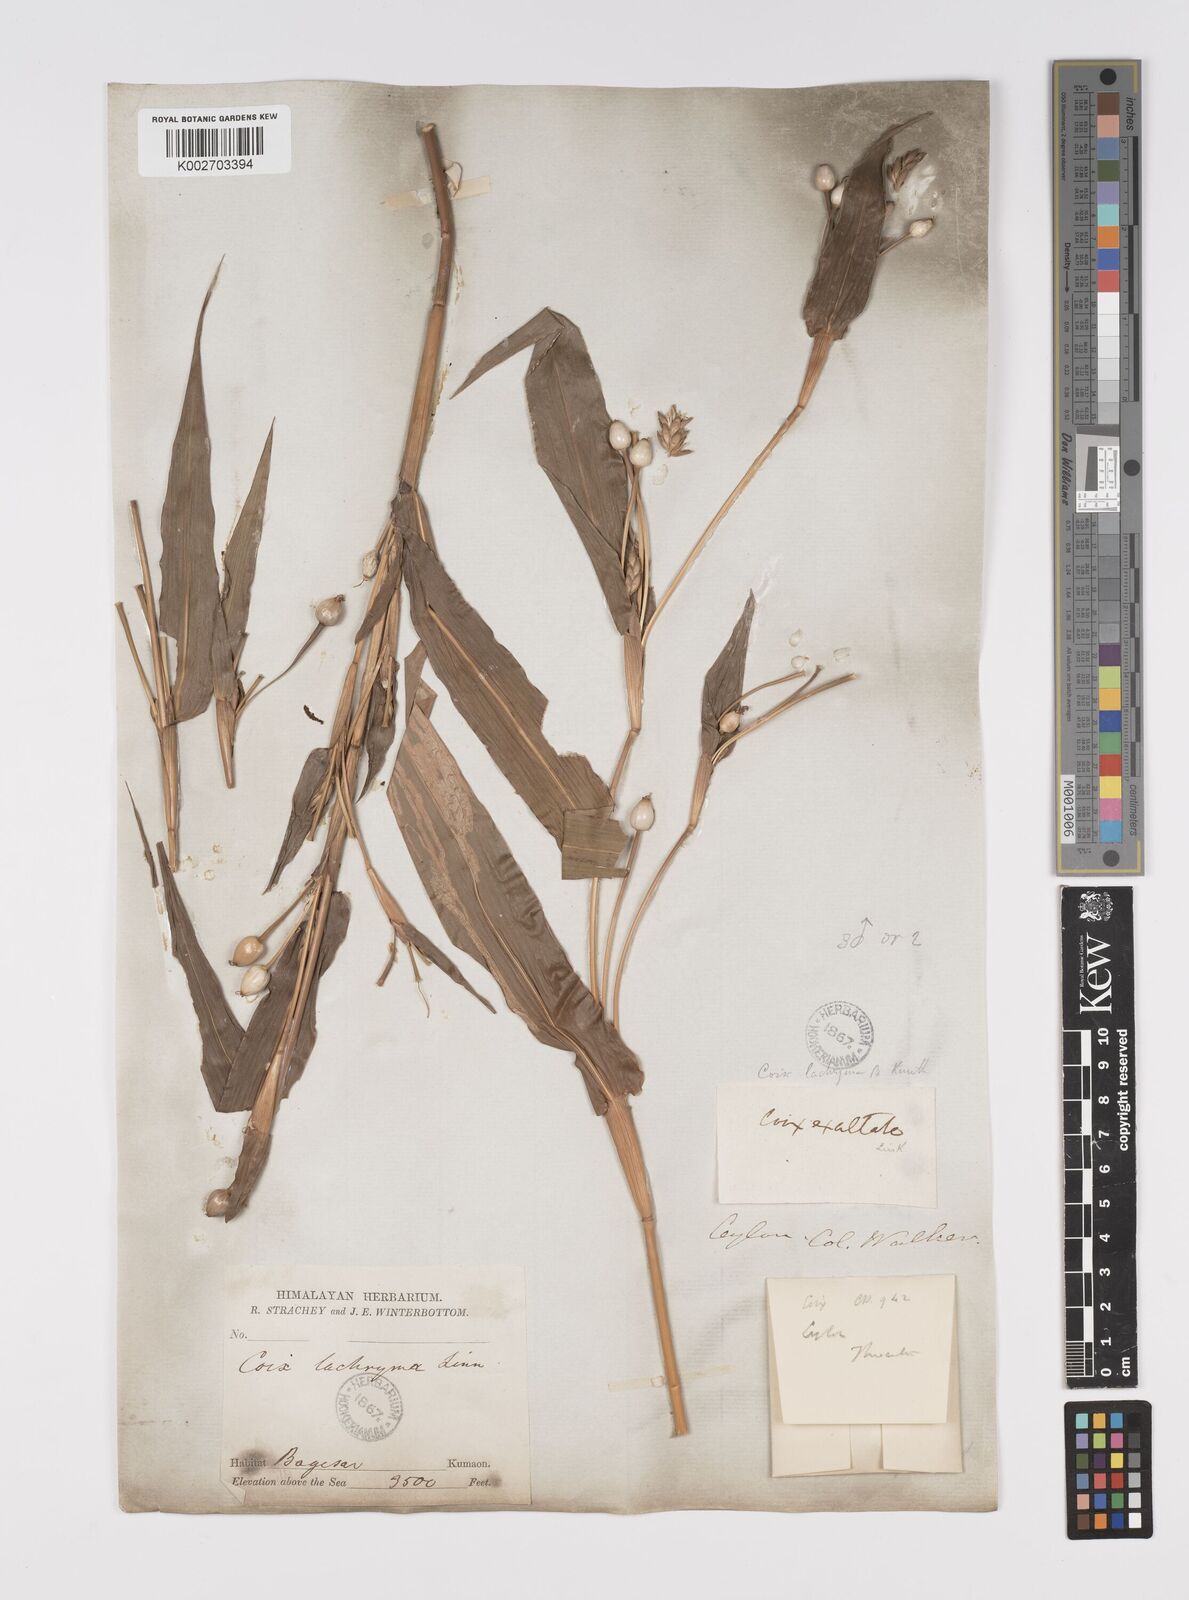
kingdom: Plantae
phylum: Tracheophyta
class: Liliopsida
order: Poales
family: Poaceae
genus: Coix
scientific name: Coix lacryma-jobi
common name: Job's tears
